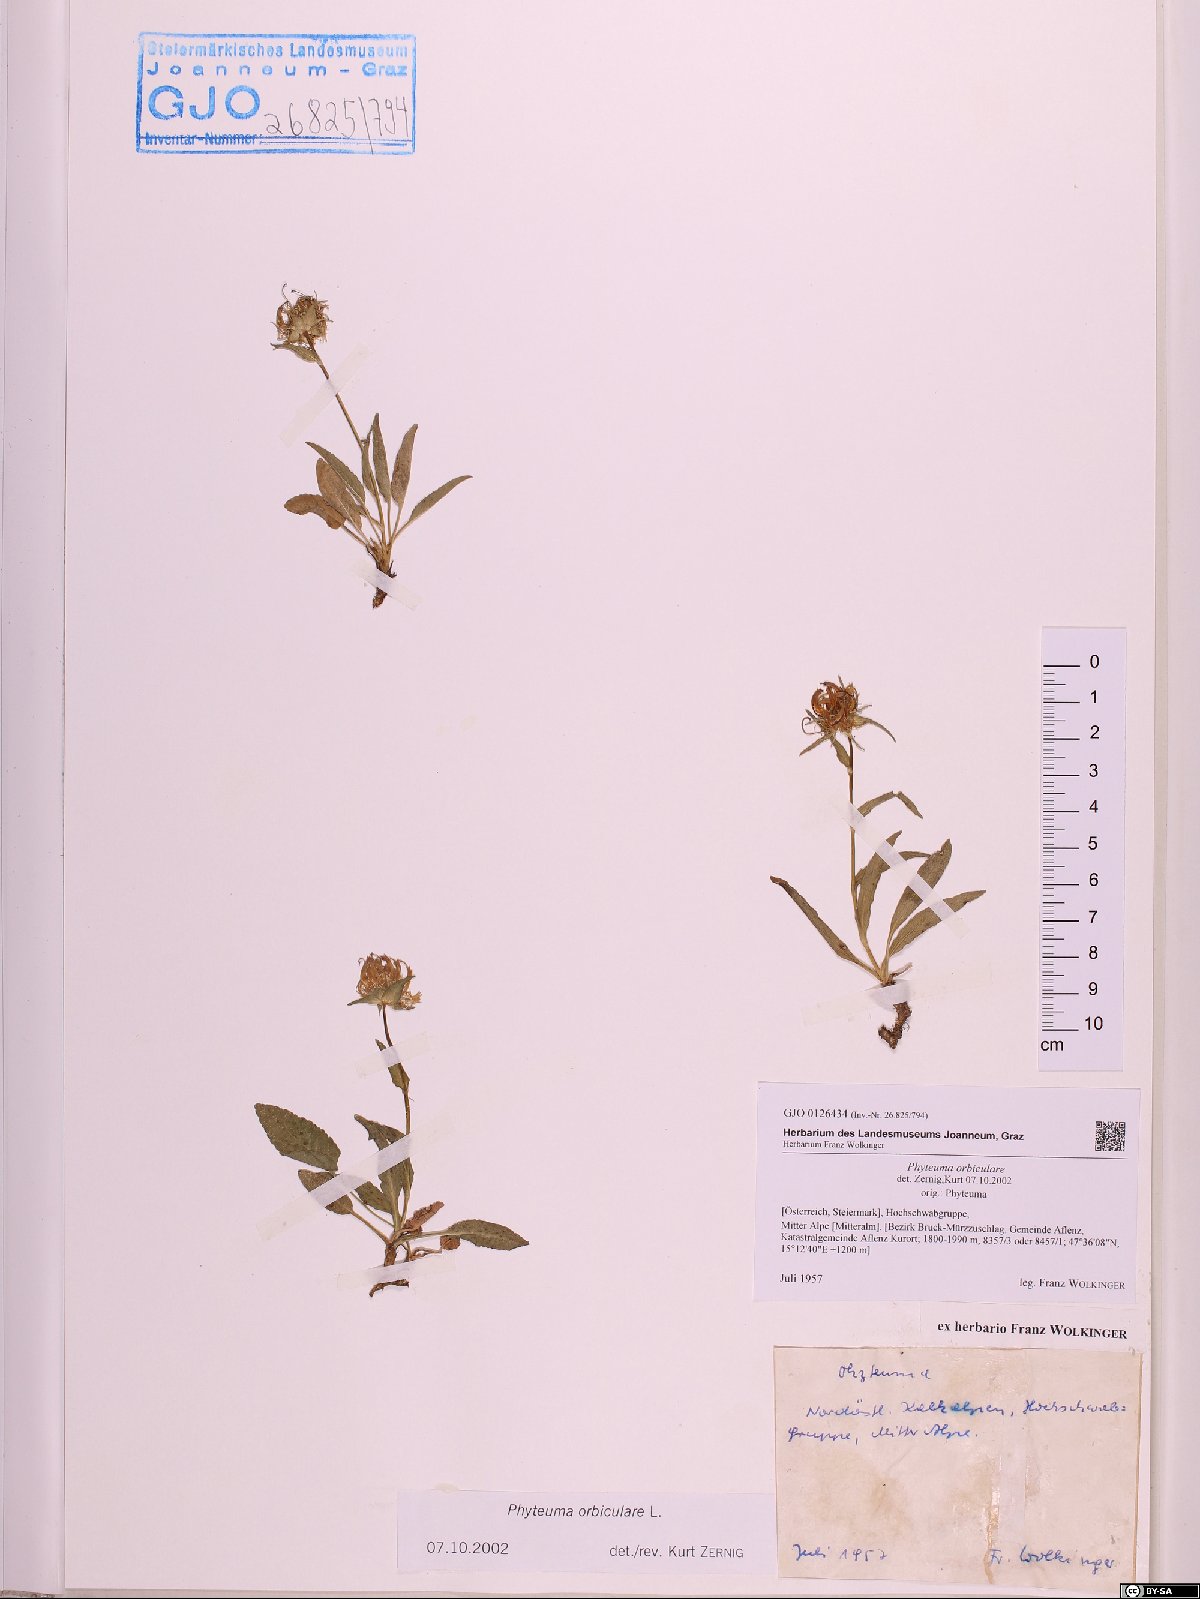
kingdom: Plantae
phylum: Tracheophyta
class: Magnoliopsida
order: Asterales
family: Campanulaceae
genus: Phyteuma
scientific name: Phyteuma orbiculare
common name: Round-headed rampion
